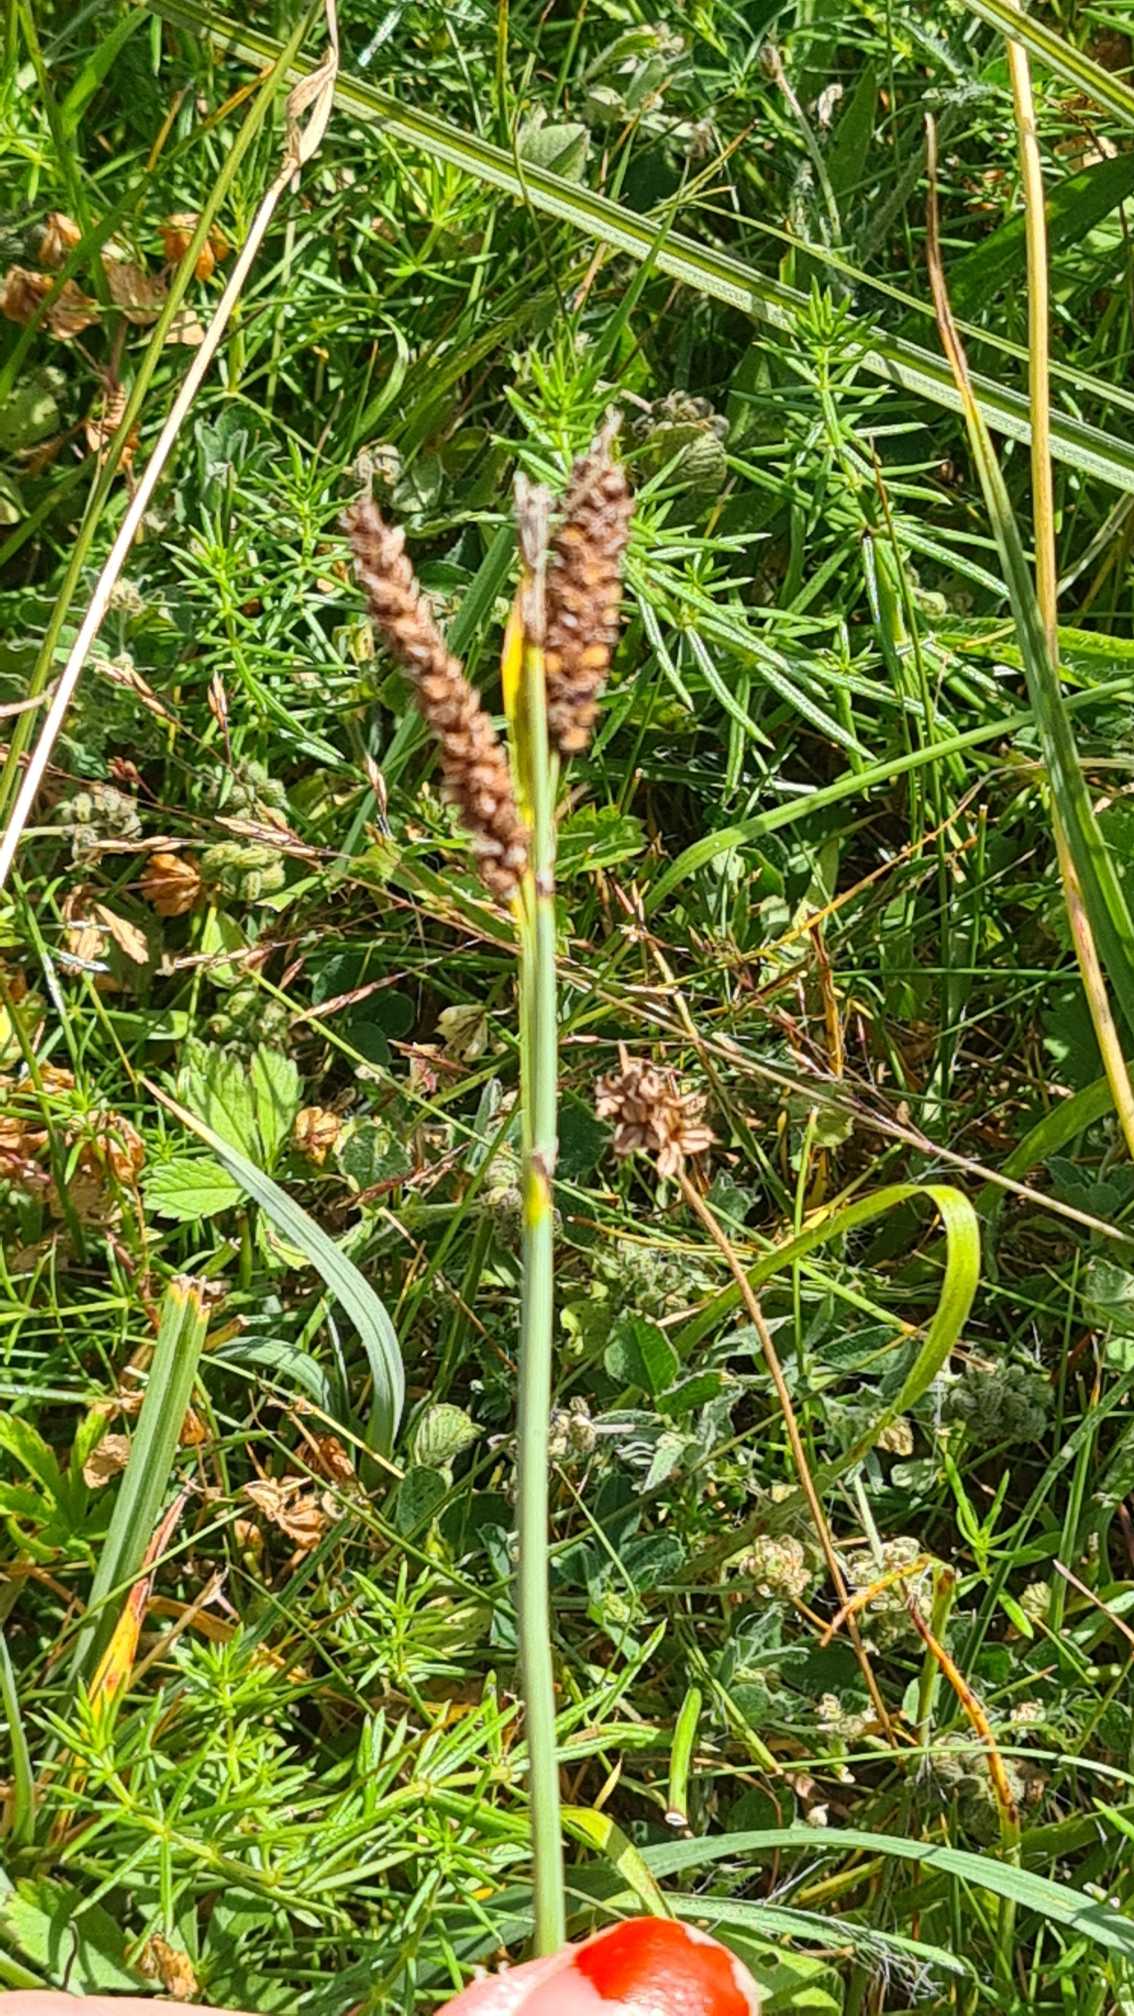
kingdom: Plantae
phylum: Tracheophyta
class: Liliopsida
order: Poales
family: Cyperaceae
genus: Carex
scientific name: Carex flacca
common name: Blågrøn star
